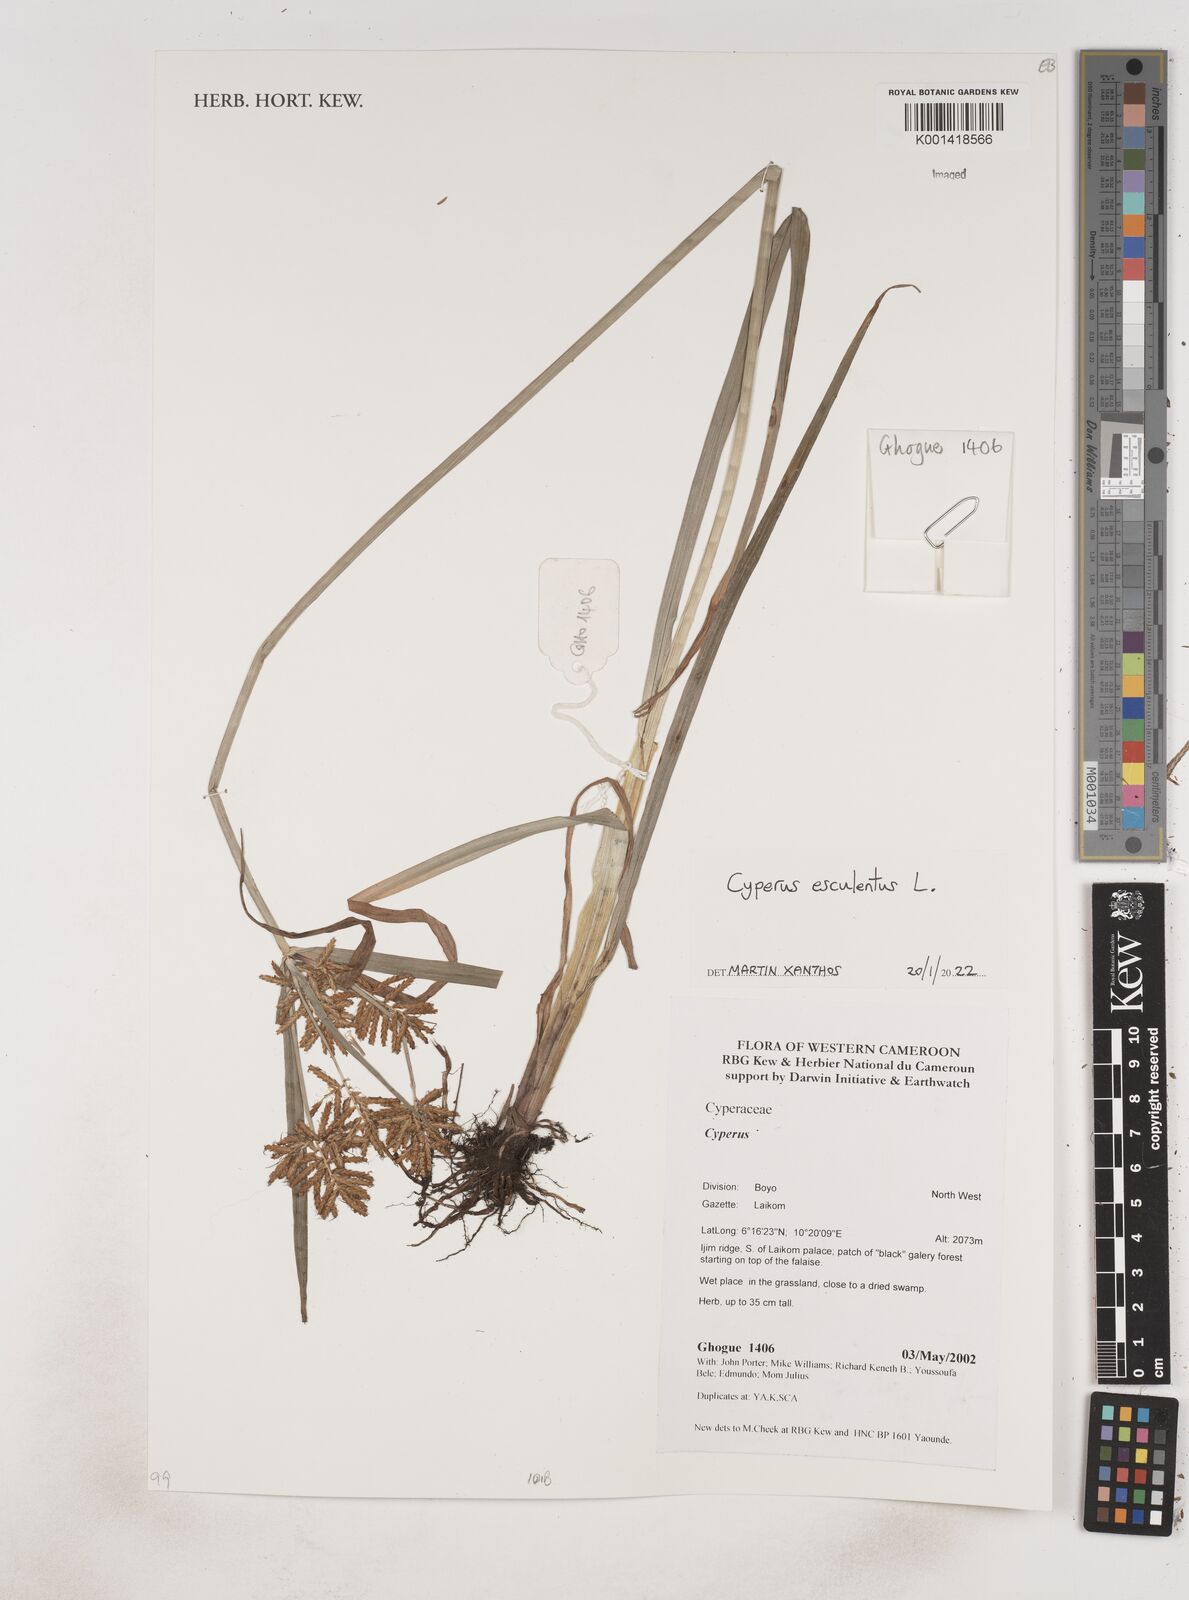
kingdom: Plantae
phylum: Tracheophyta
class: Liliopsida
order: Poales
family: Cyperaceae
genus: Cyperus
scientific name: Cyperus esculentus
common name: Yellow nutsedge
